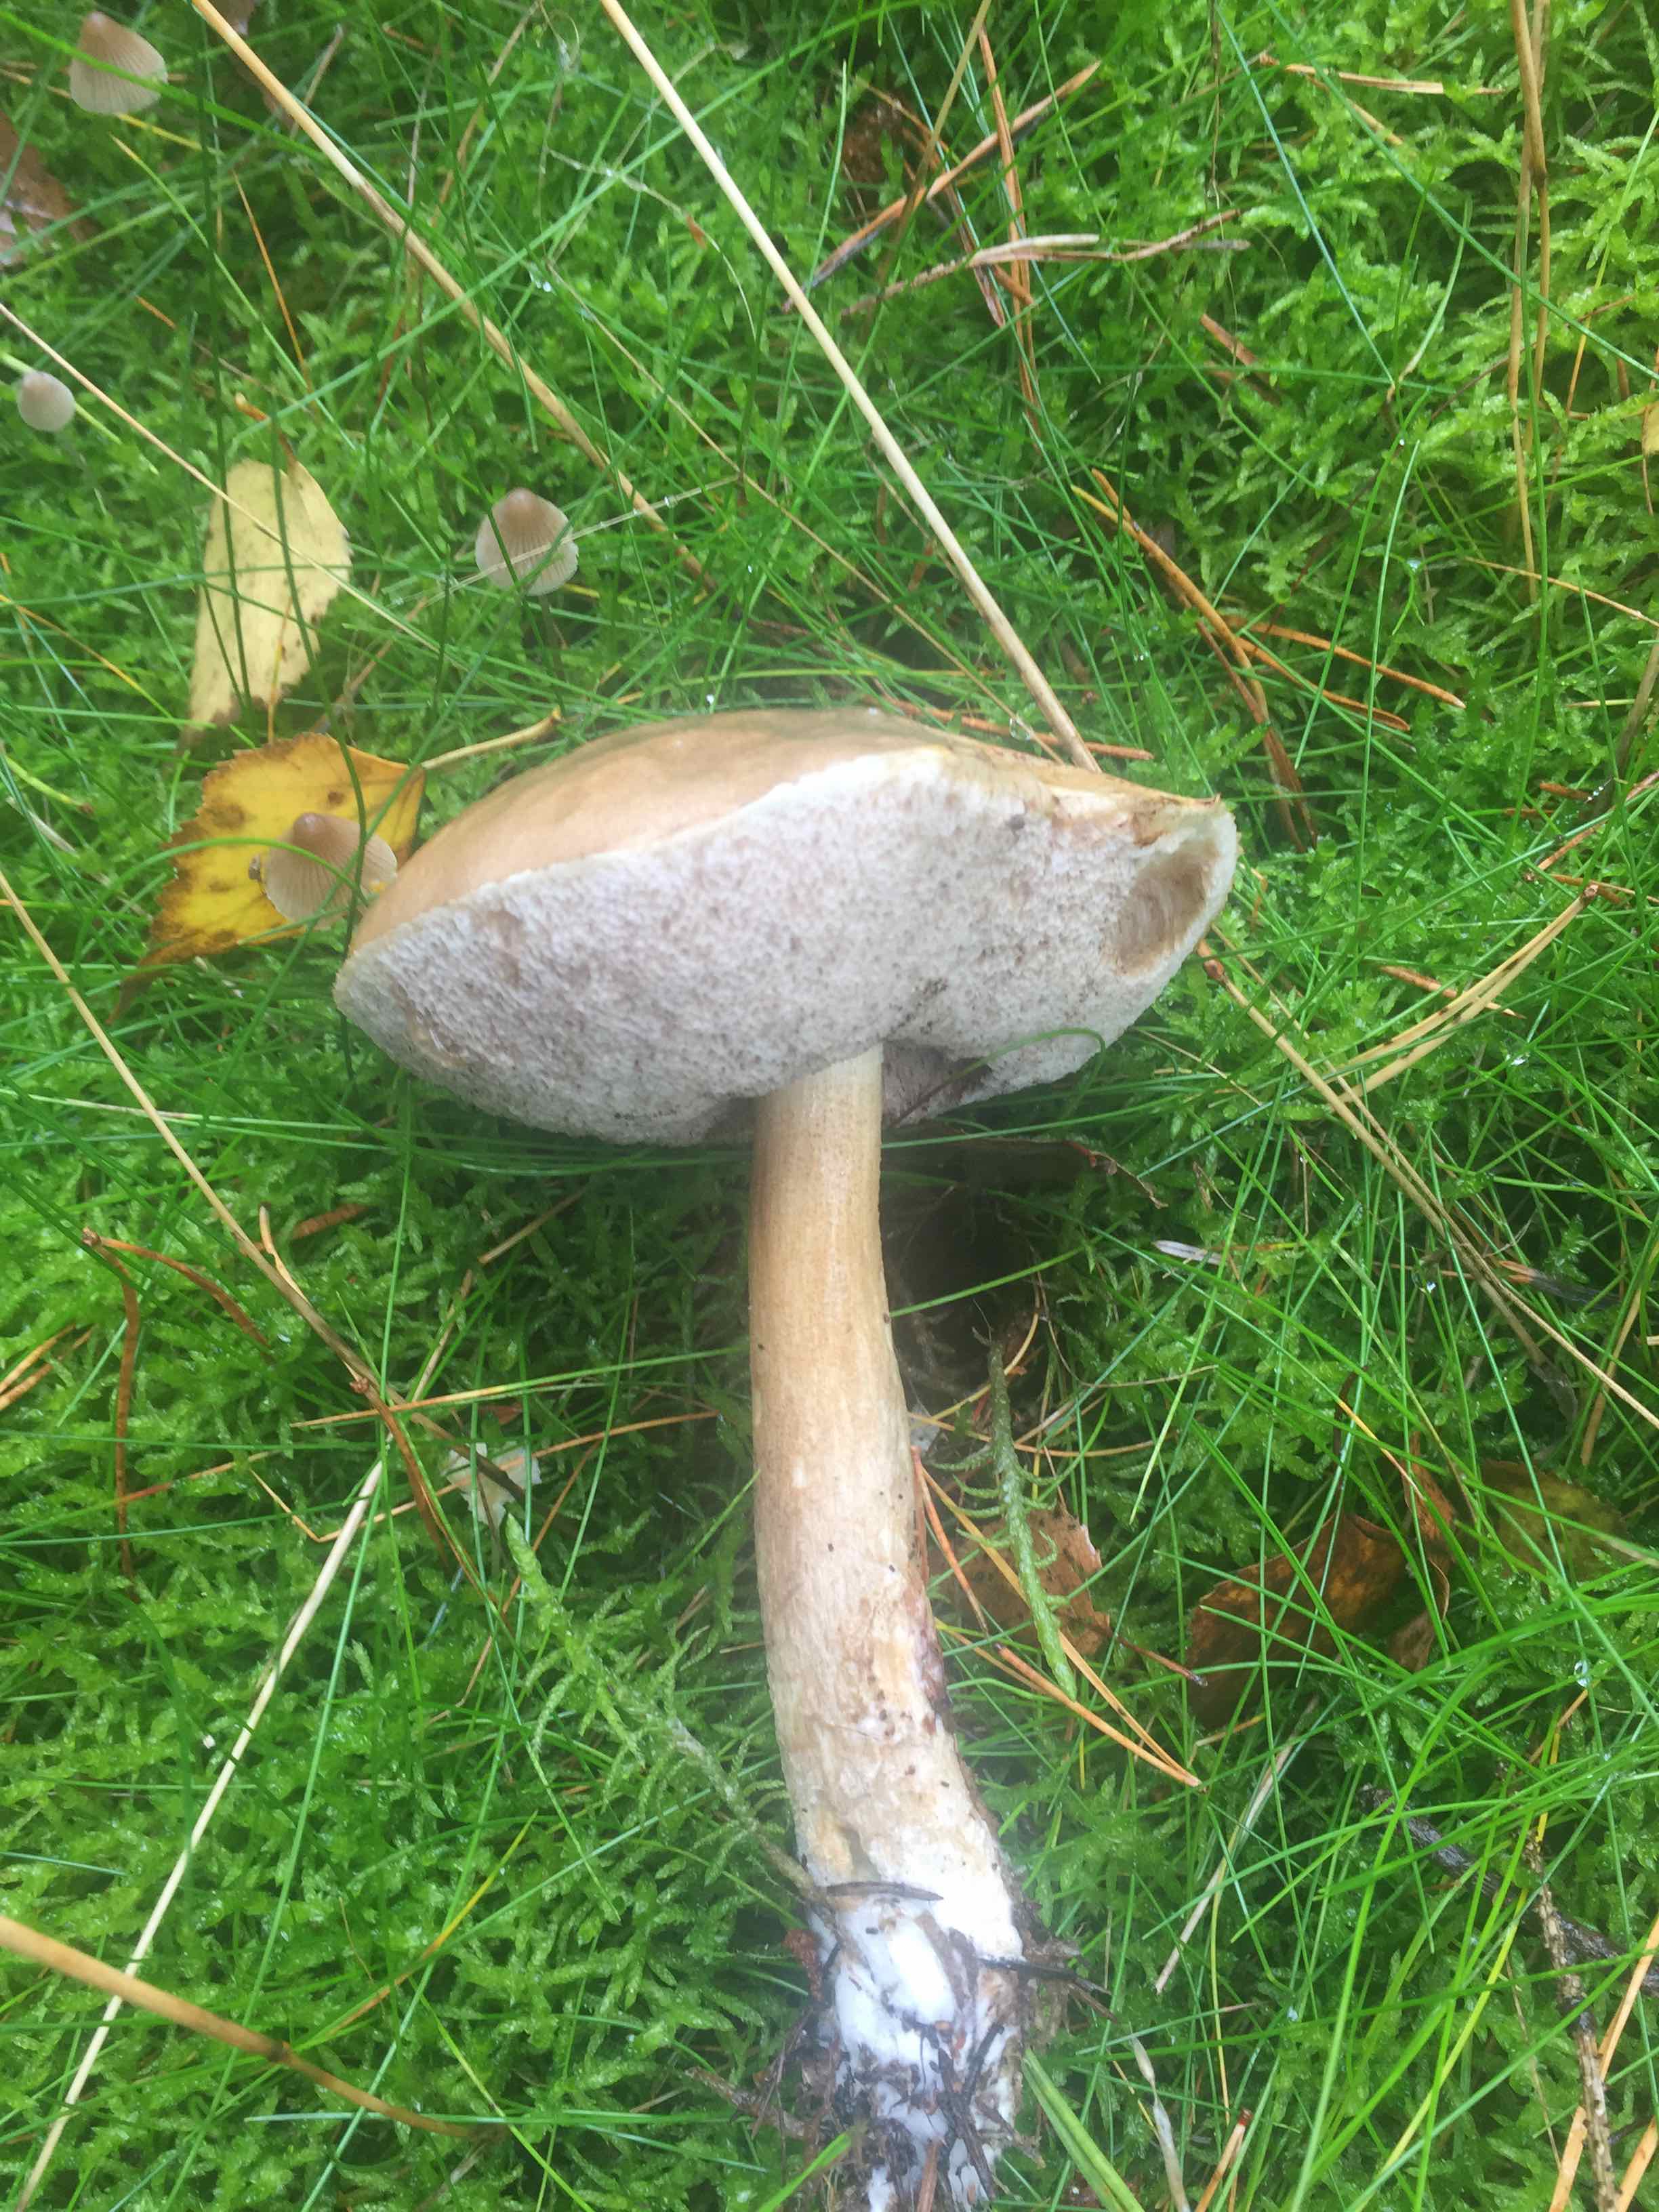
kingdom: Fungi
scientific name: Fungi
